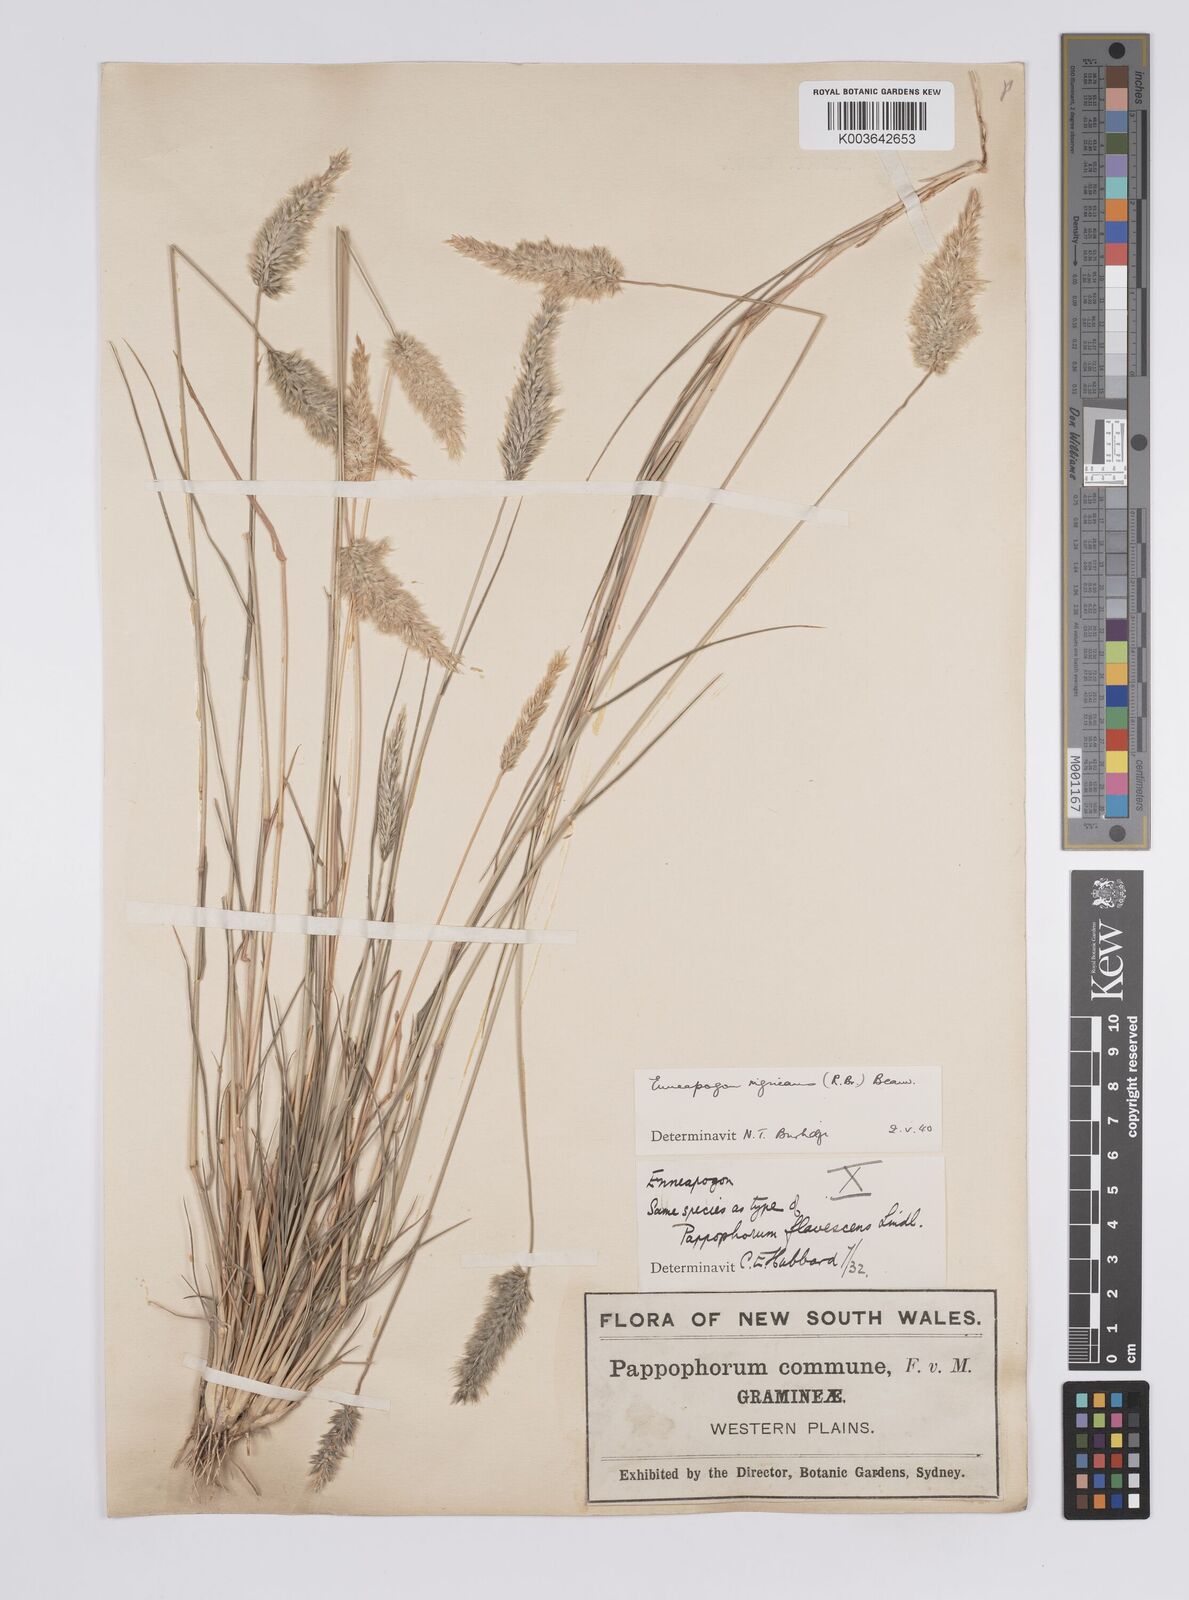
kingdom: Plantae
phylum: Tracheophyta
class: Liliopsida
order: Poales
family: Poaceae
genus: Enneapogon
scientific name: Enneapogon nigricans
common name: Pappus grass
